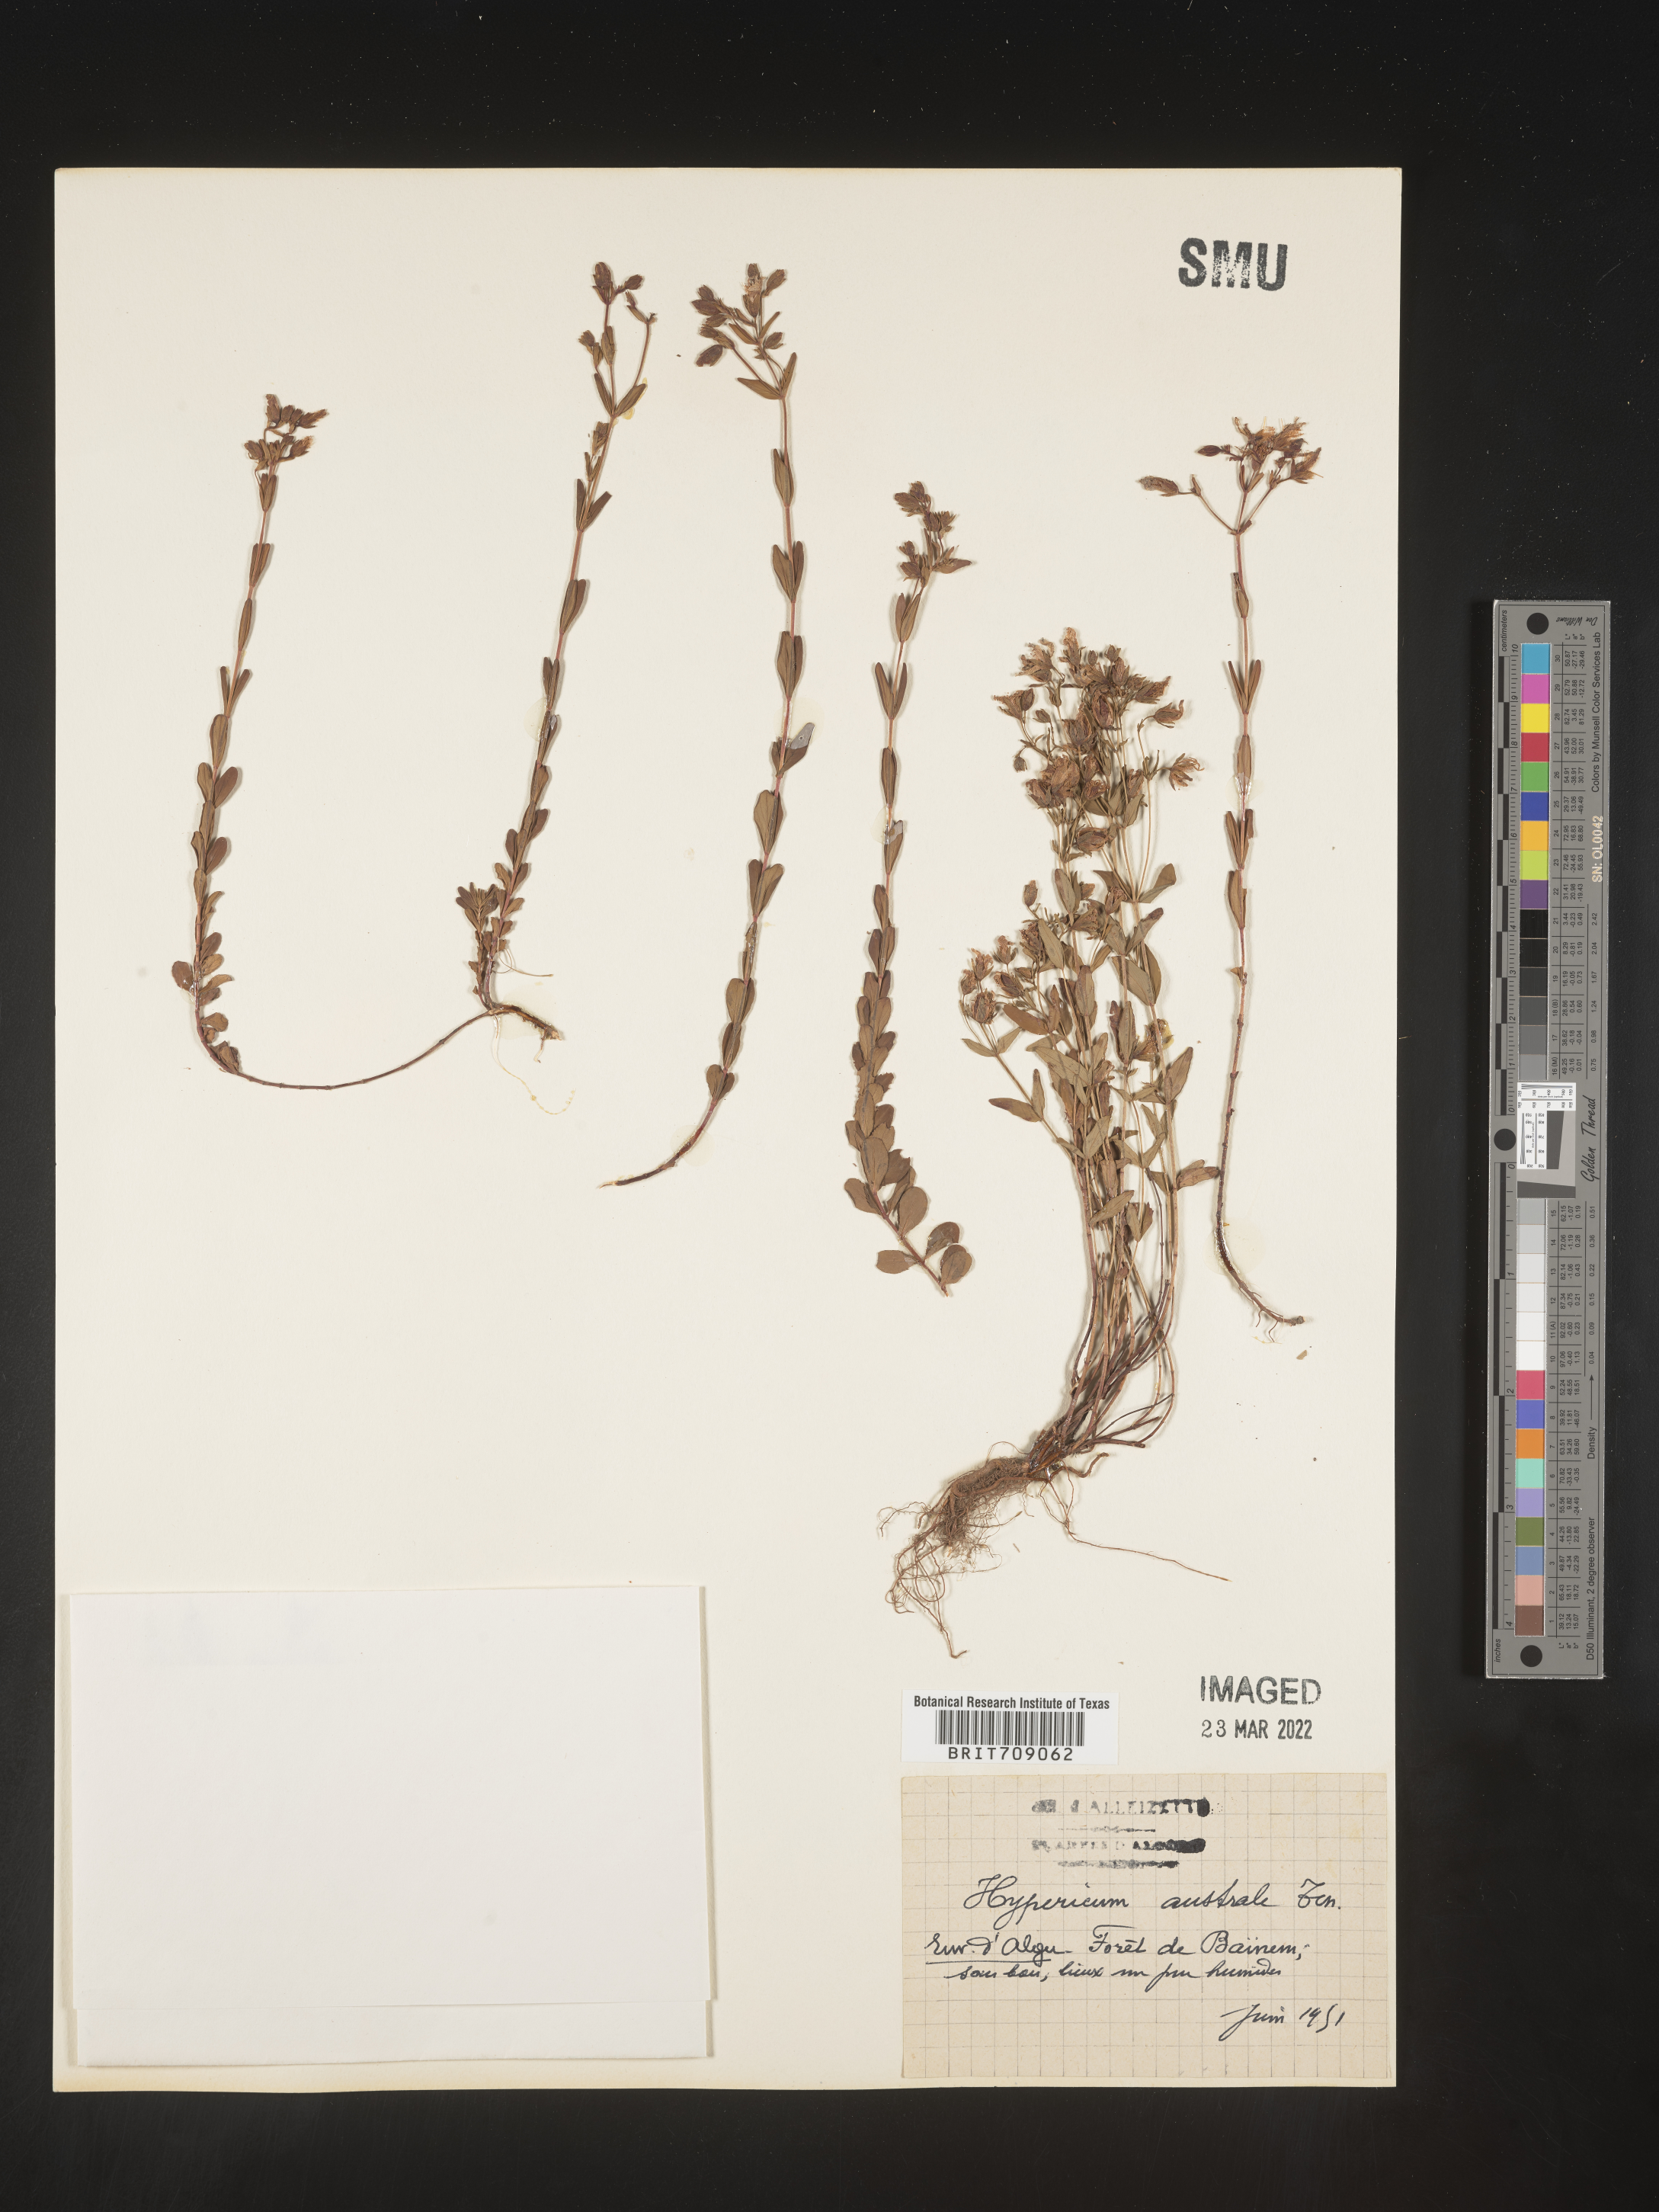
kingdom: Plantae
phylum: Tracheophyta
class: Magnoliopsida
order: Malpighiales
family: Hypericaceae
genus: Hypericum
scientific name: Hypericum
